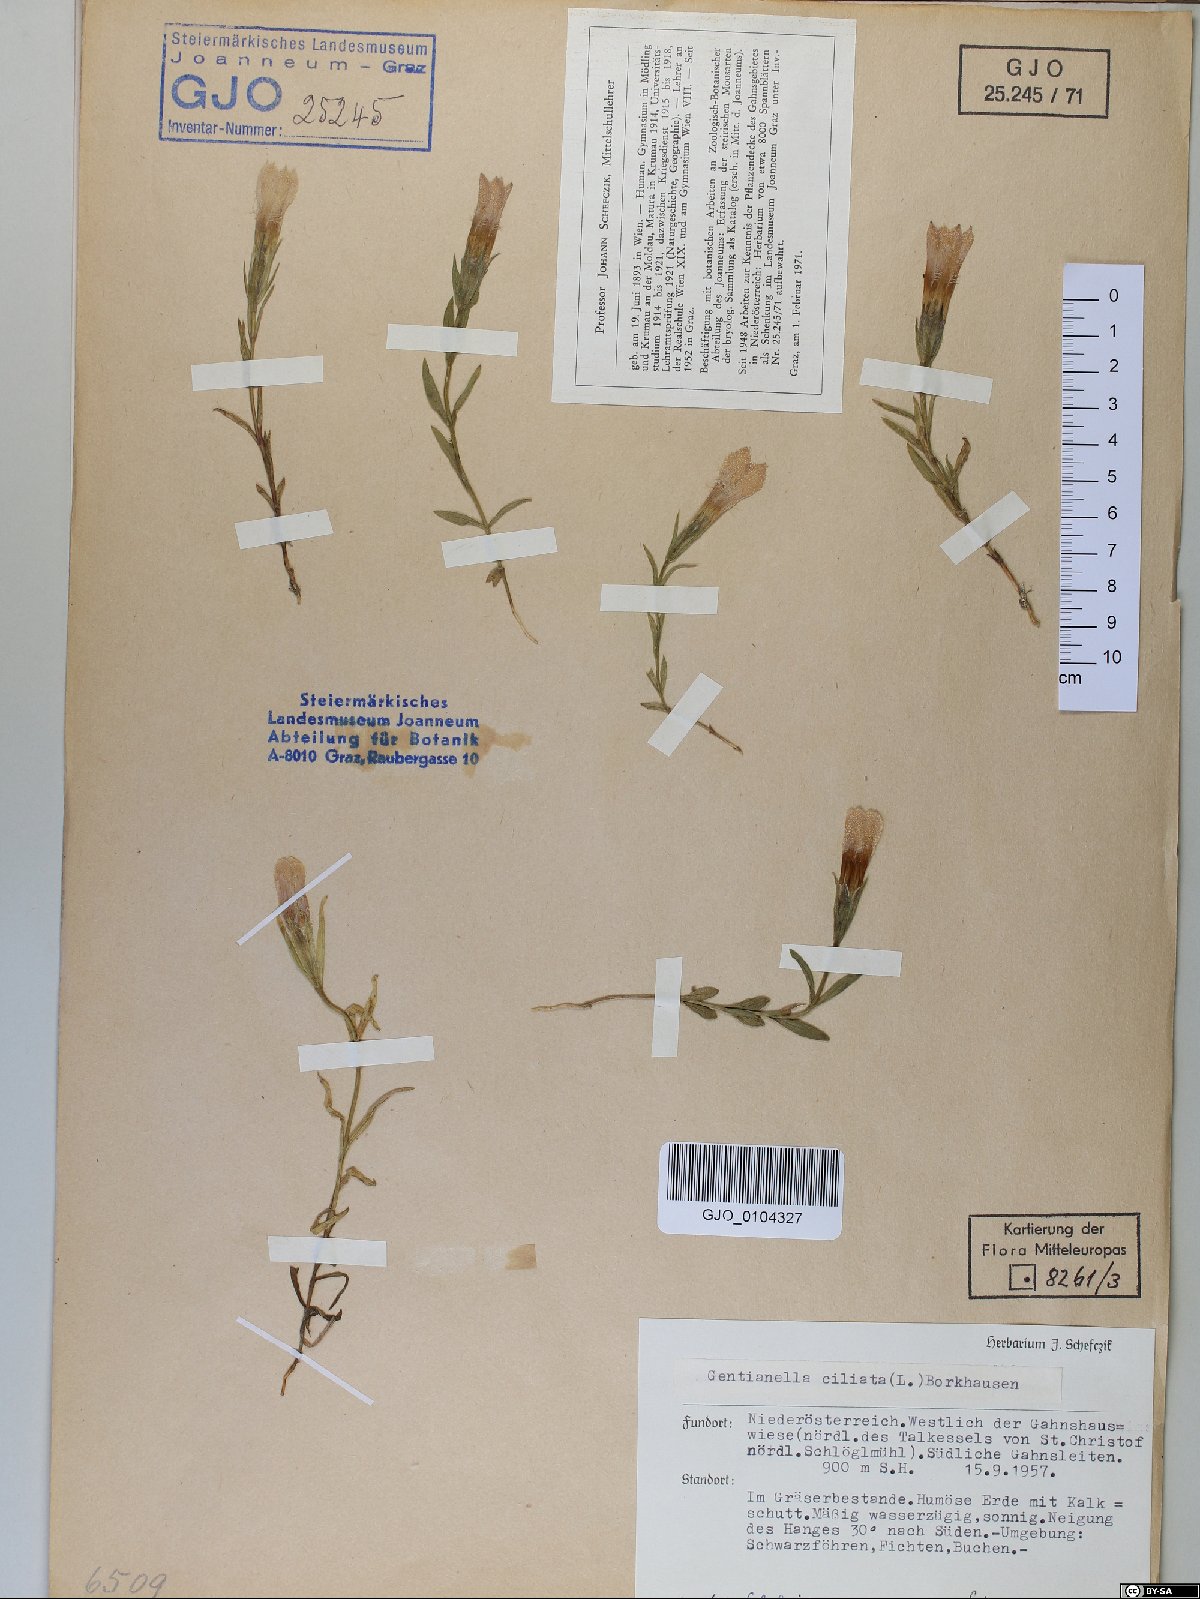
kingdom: Plantae
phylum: Tracheophyta
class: Magnoliopsida
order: Gentianales
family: Gentianaceae
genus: Gentianopsis
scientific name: Gentianopsis ciliata
